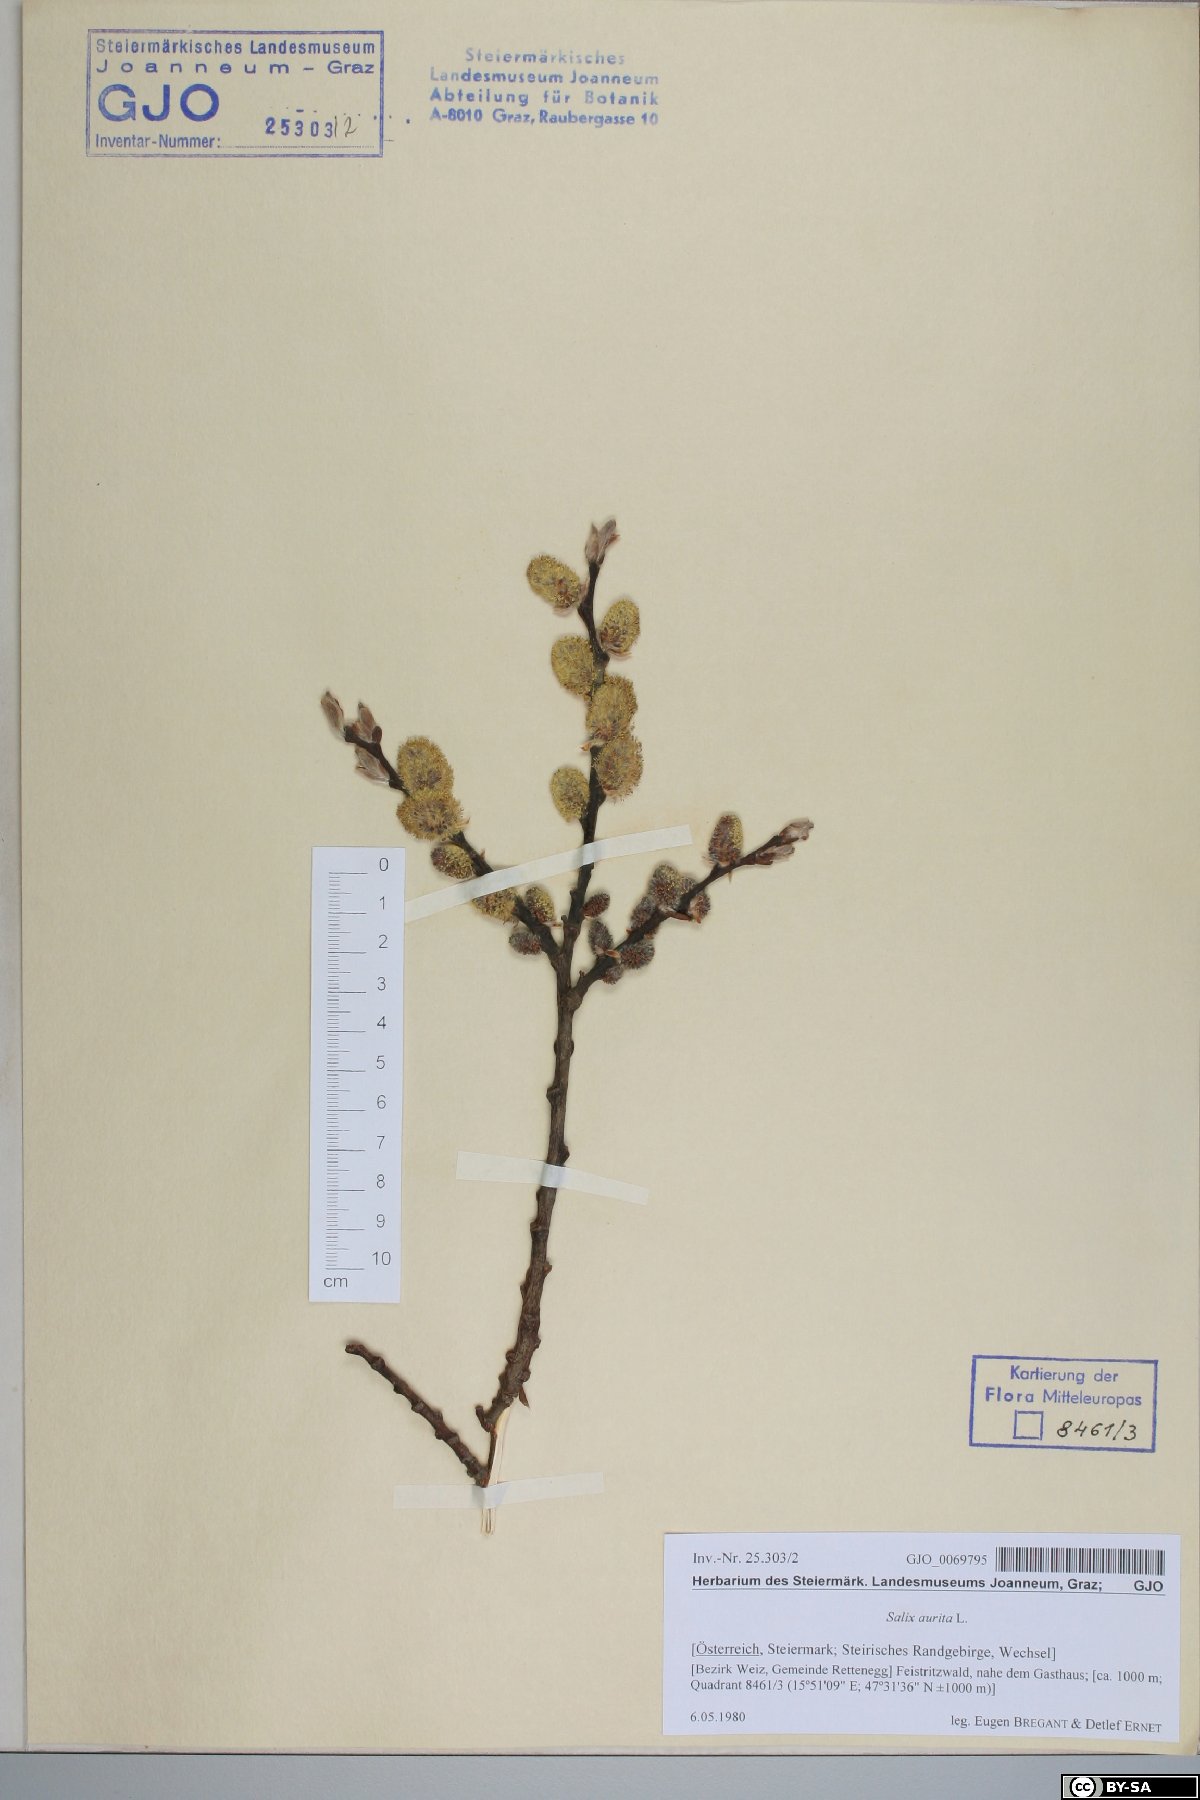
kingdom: Plantae
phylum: Tracheophyta
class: Magnoliopsida
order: Malpighiales
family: Salicaceae
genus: Salix
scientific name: Salix aurita
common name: Eared willow
